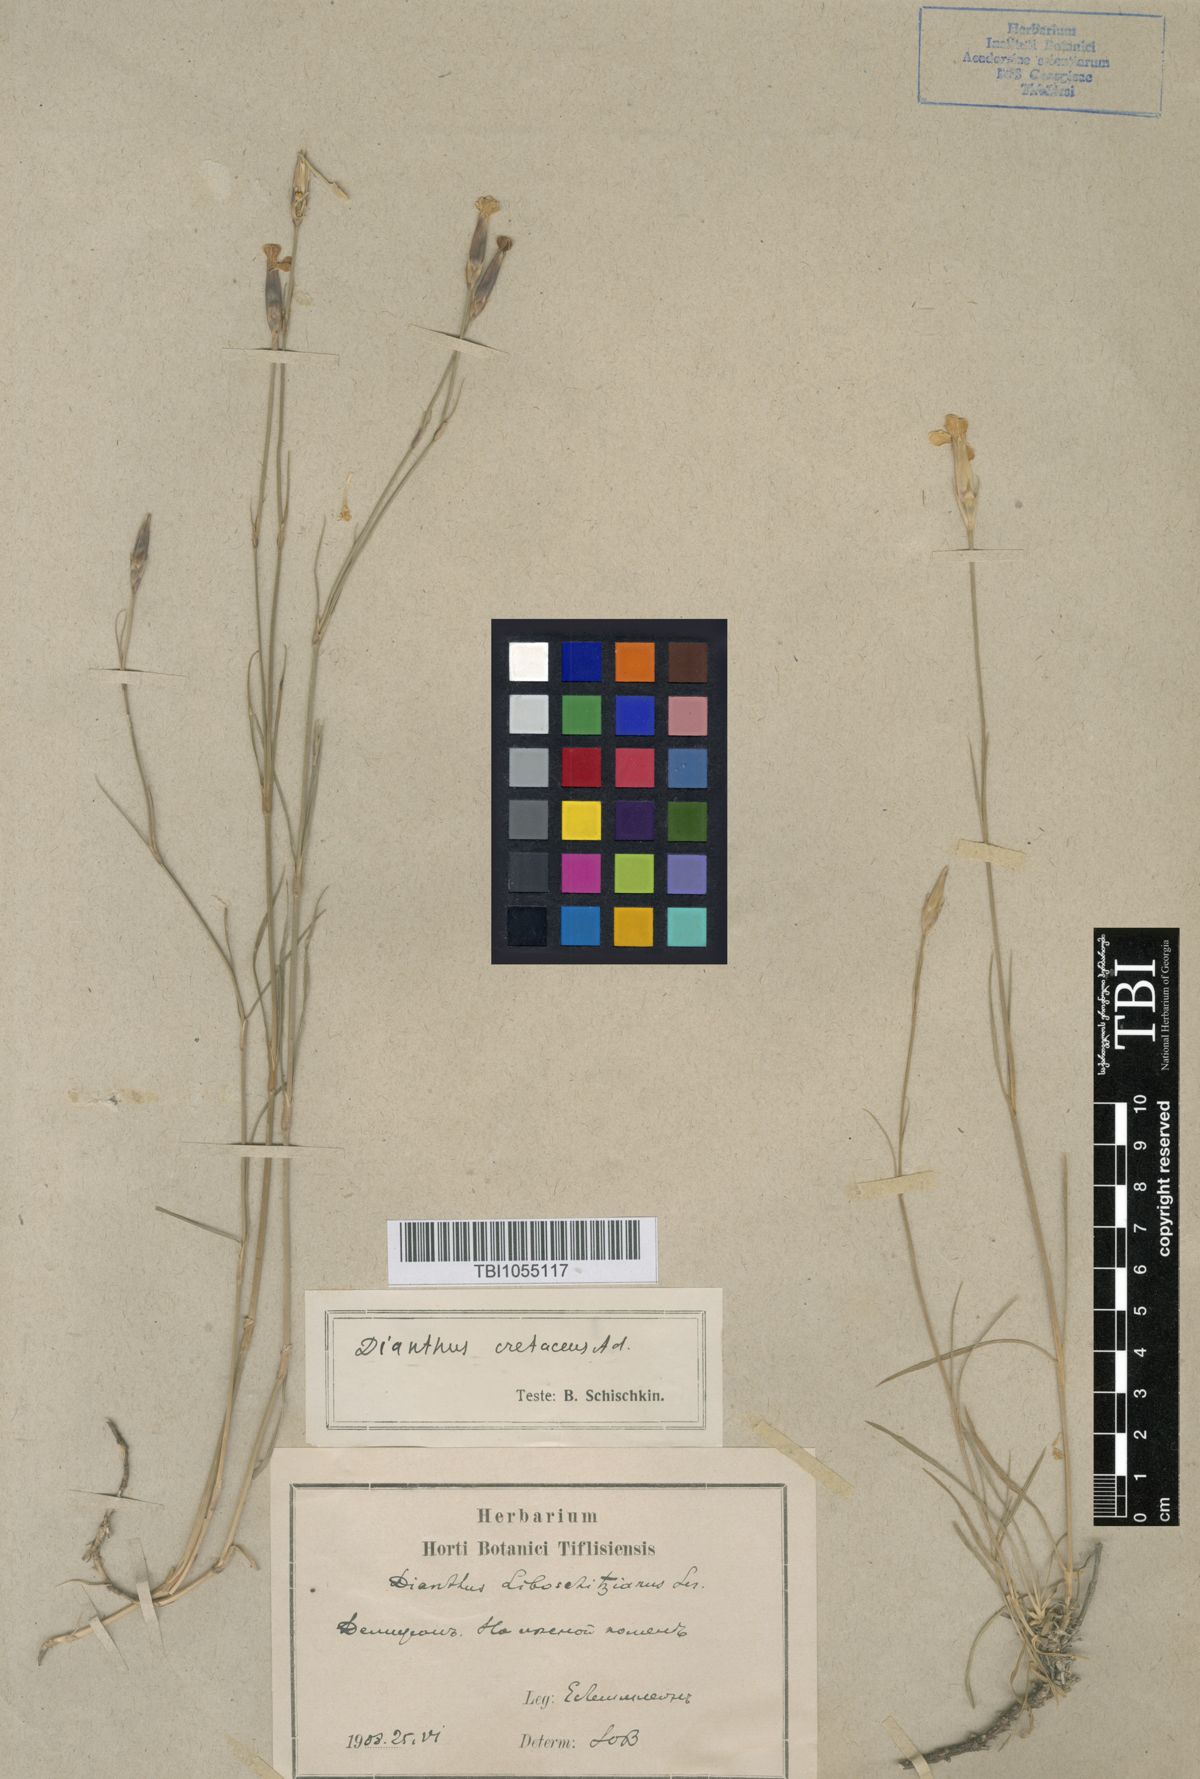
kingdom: Plantae
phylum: Tracheophyta
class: Magnoliopsida
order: Caryophyllales
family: Caryophyllaceae
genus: Dianthus
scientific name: Dianthus cretaceus
